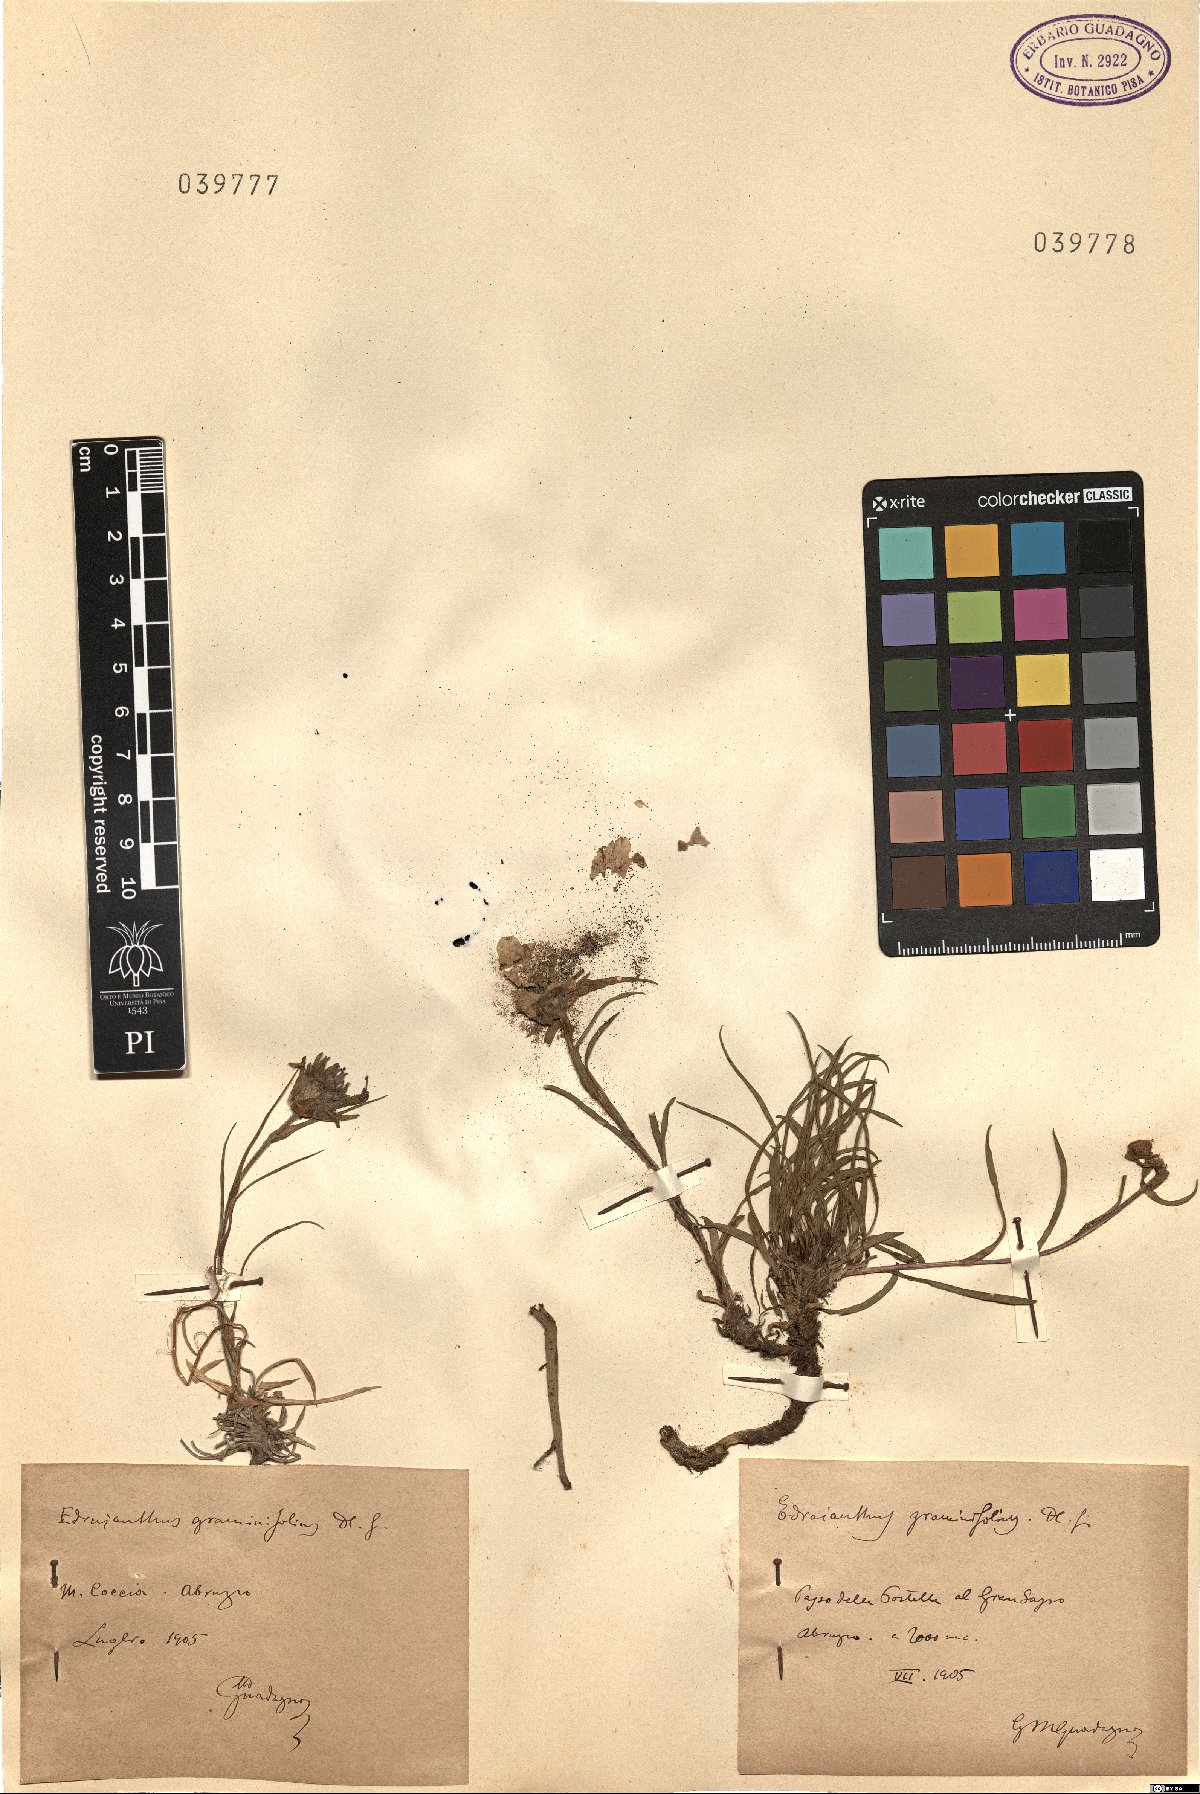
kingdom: Plantae
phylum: Tracheophyta
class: Magnoliopsida
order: Asterales
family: Campanulaceae
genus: Edraianthus
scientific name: Edraianthus graminifolius
